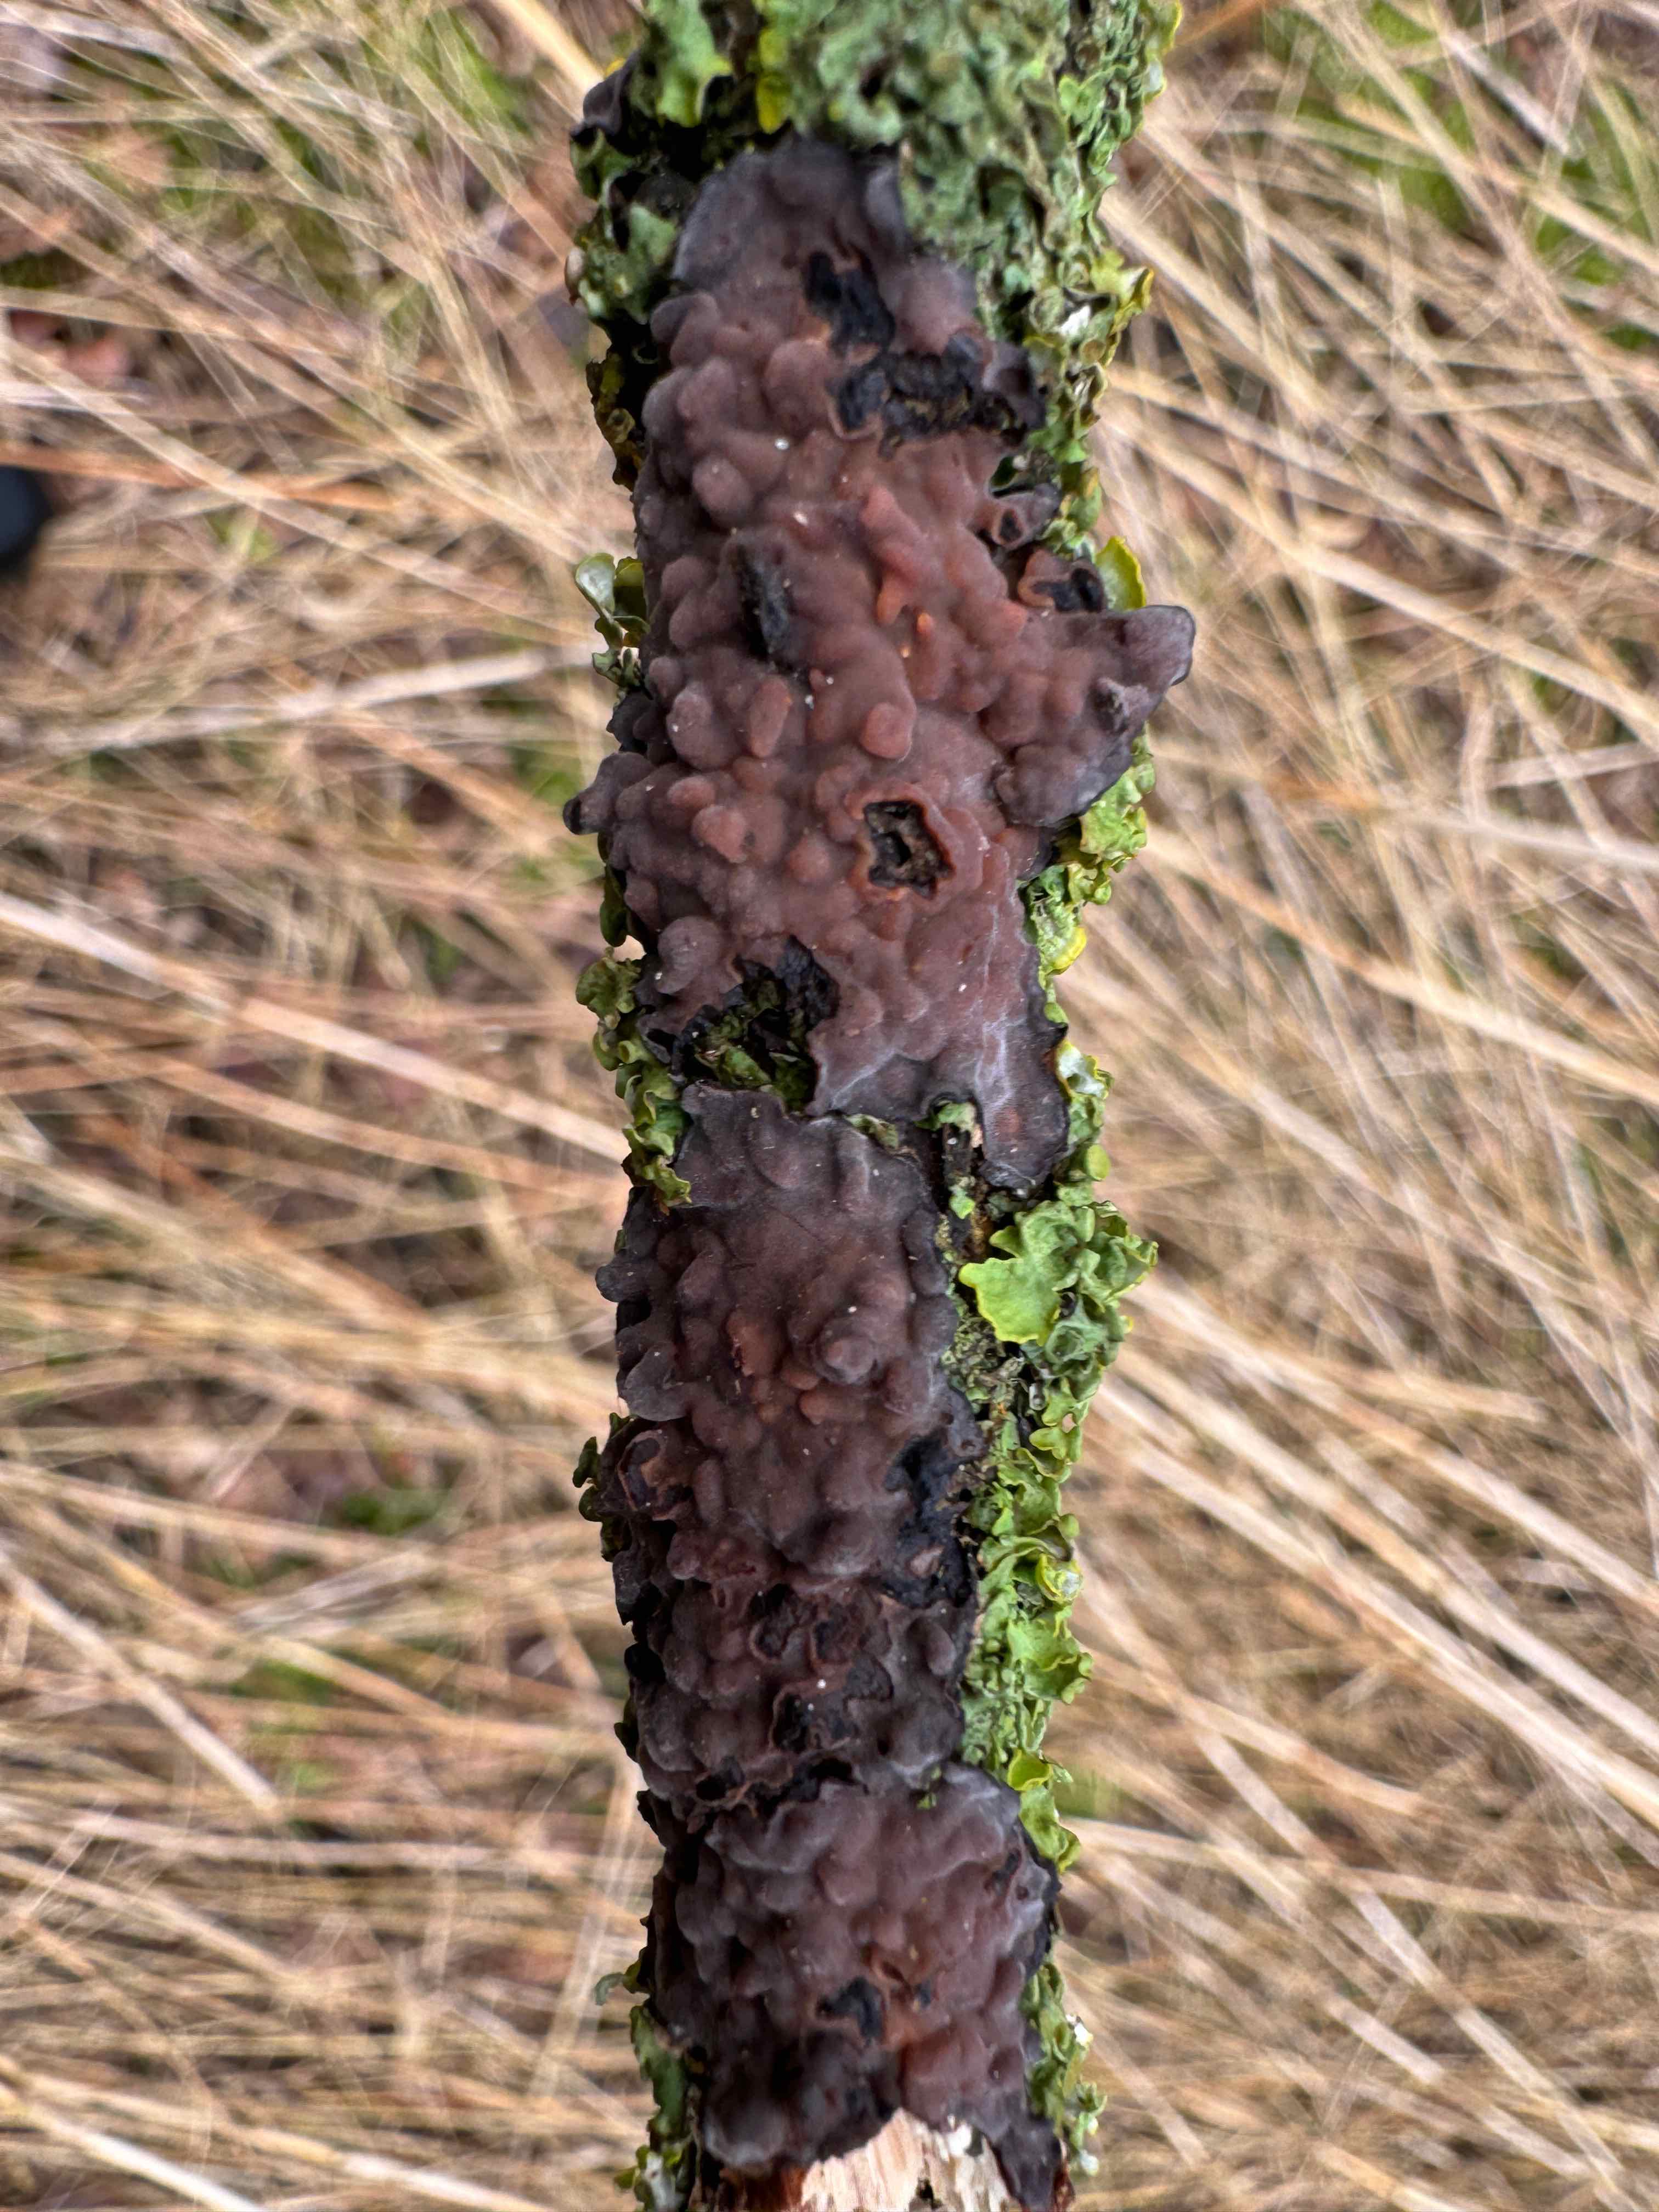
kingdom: Fungi
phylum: Basidiomycota
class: Agaricomycetes
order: Russulales
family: Peniophoraceae
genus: Peniophora
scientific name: Peniophora quercina
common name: ege-voksskind
